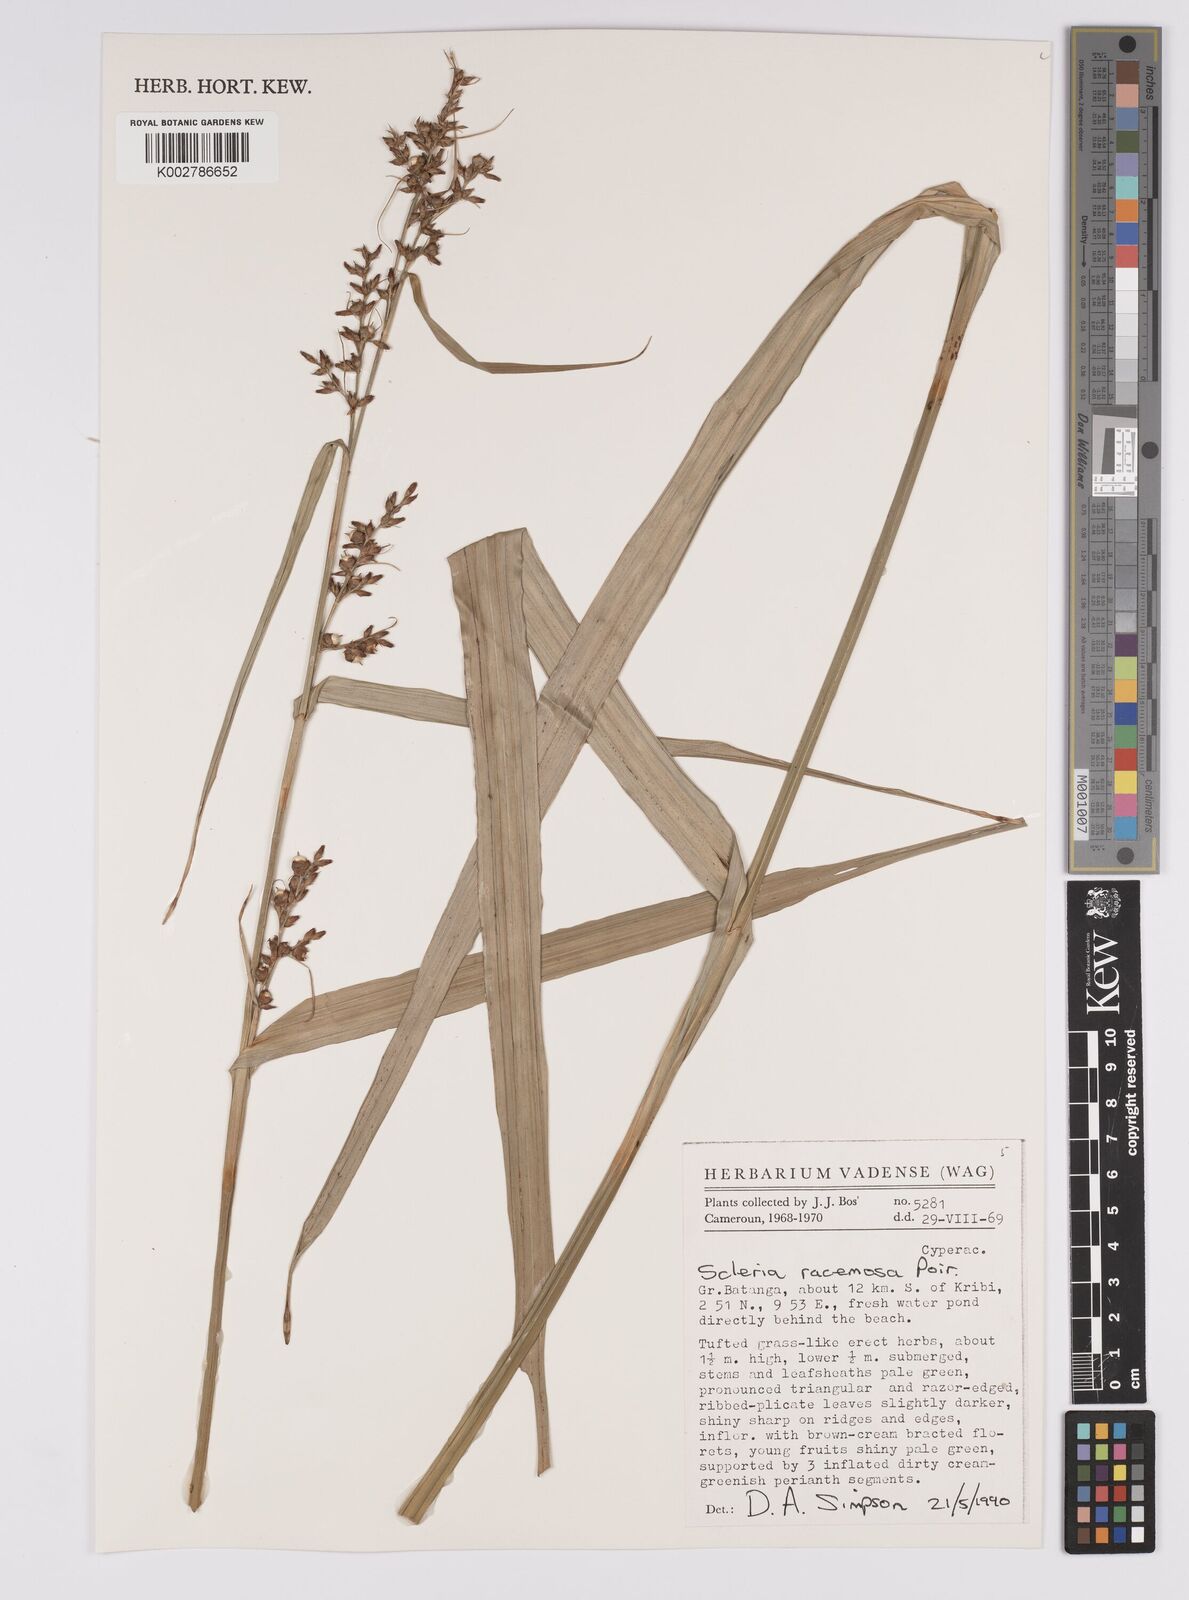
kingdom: Plantae
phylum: Tracheophyta
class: Liliopsida
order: Poales
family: Cyperaceae
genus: Scleria
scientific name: Scleria racemosa
